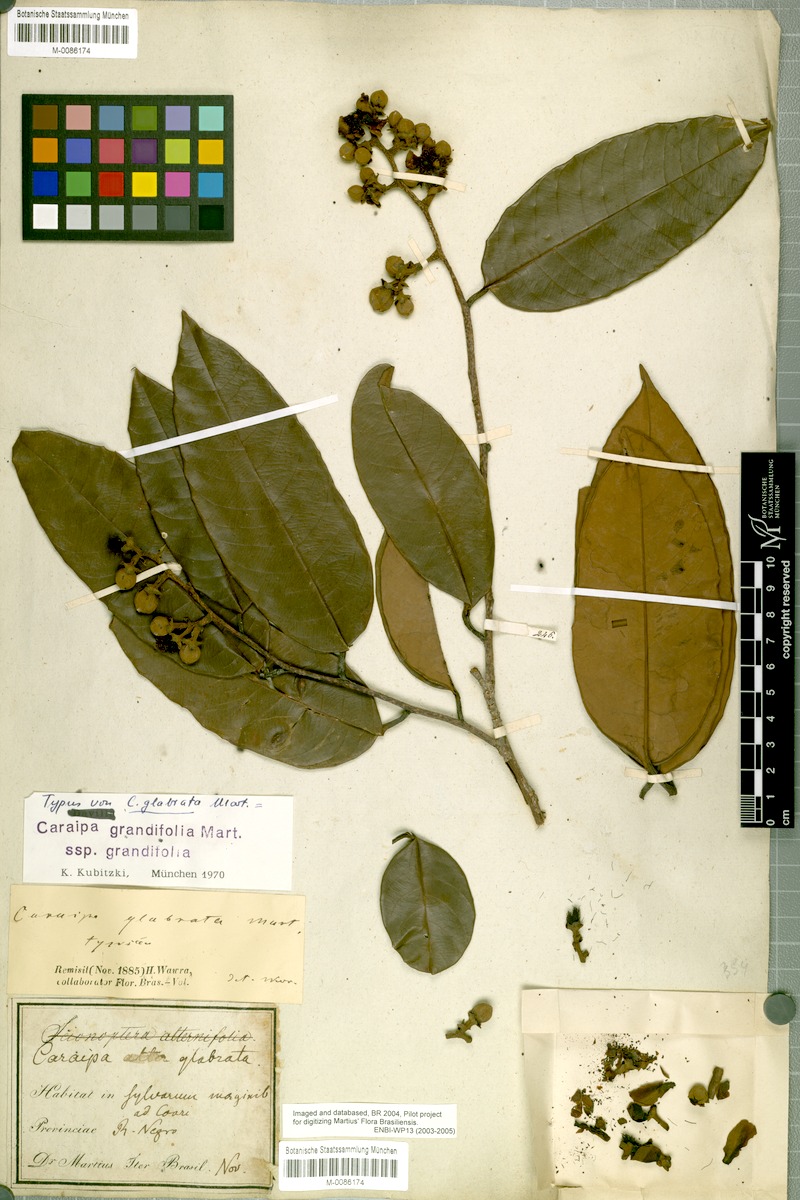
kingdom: Plantae
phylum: Tracheophyta
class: Magnoliopsida
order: Malpighiales
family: Calophyllaceae
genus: Caraipa
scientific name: Caraipa grandifolia
